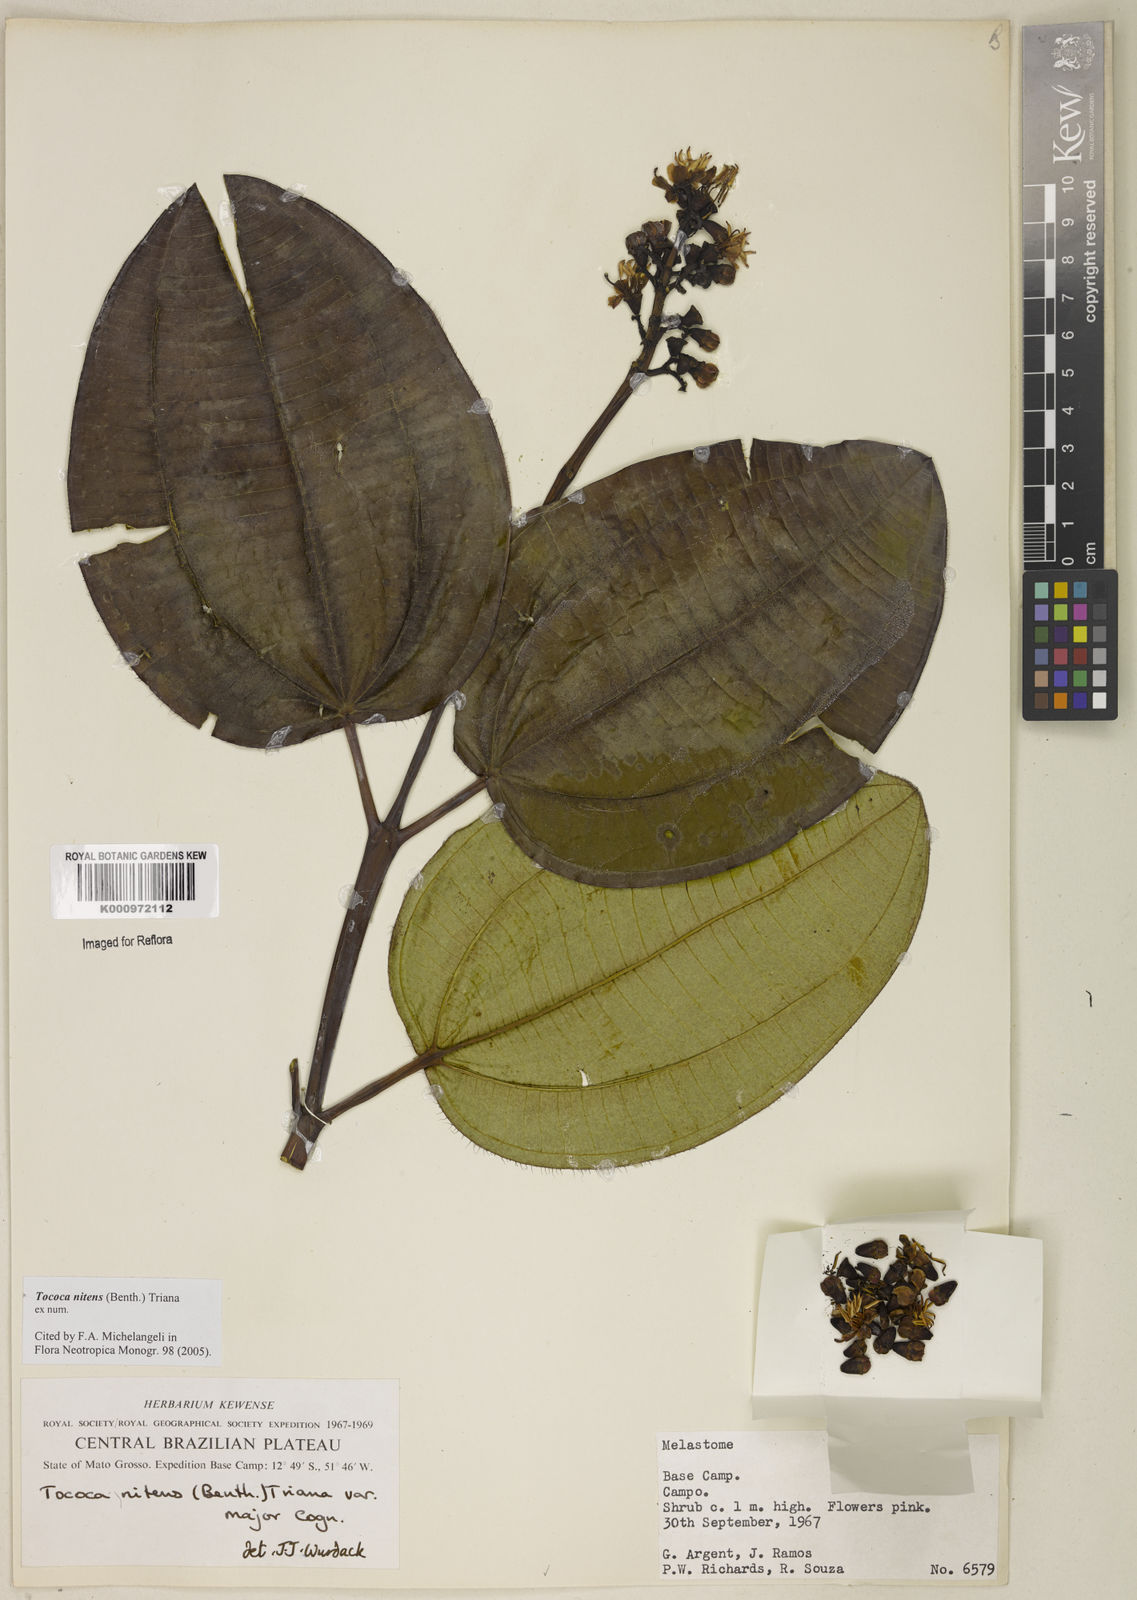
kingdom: Plantae
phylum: Tracheophyta
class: Magnoliopsida
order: Myrtales
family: Melastomataceae
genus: Miconia
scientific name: Miconia nitens
